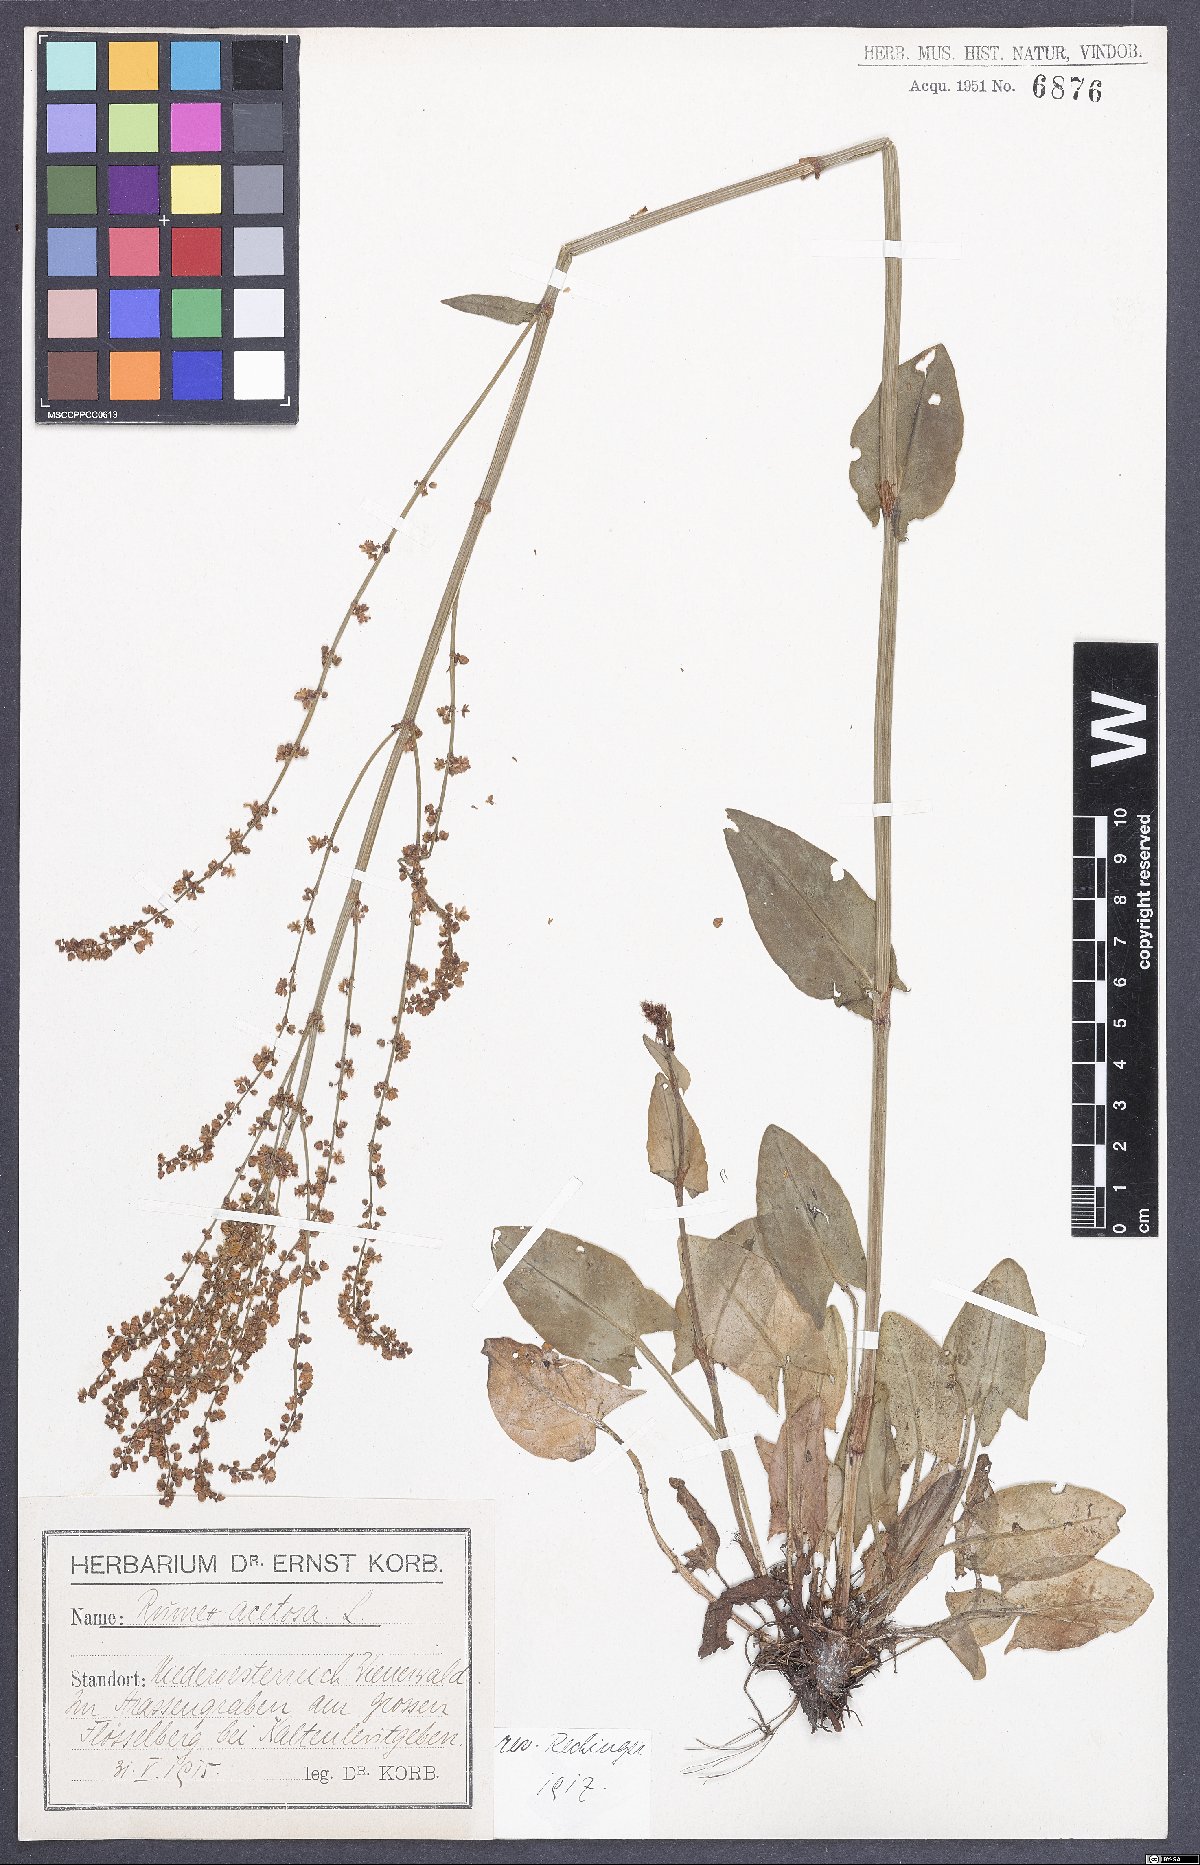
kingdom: Plantae
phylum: Tracheophyta
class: Magnoliopsida
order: Caryophyllales
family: Polygonaceae
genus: Rumex
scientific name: Rumex acetosa
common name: Garden sorrel
